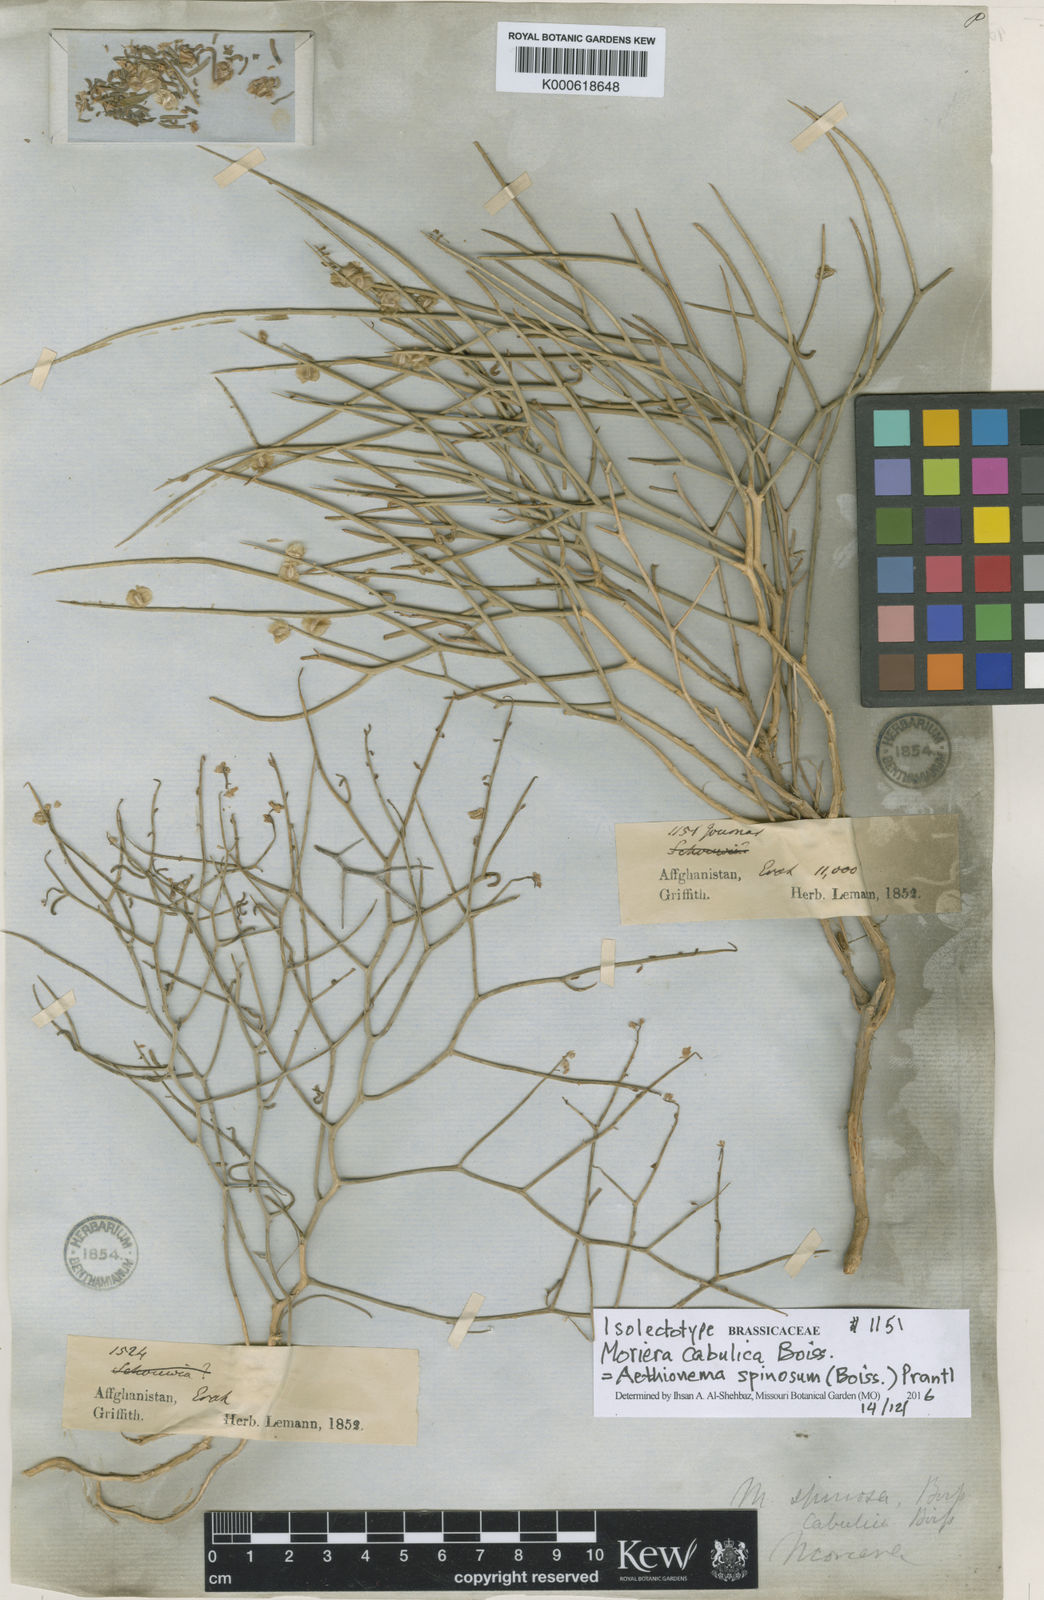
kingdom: Plantae
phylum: Tracheophyta
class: Magnoliopsida
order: Brassicales
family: Brassicaceae
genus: Aethionema
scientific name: Aethionema spinosum
